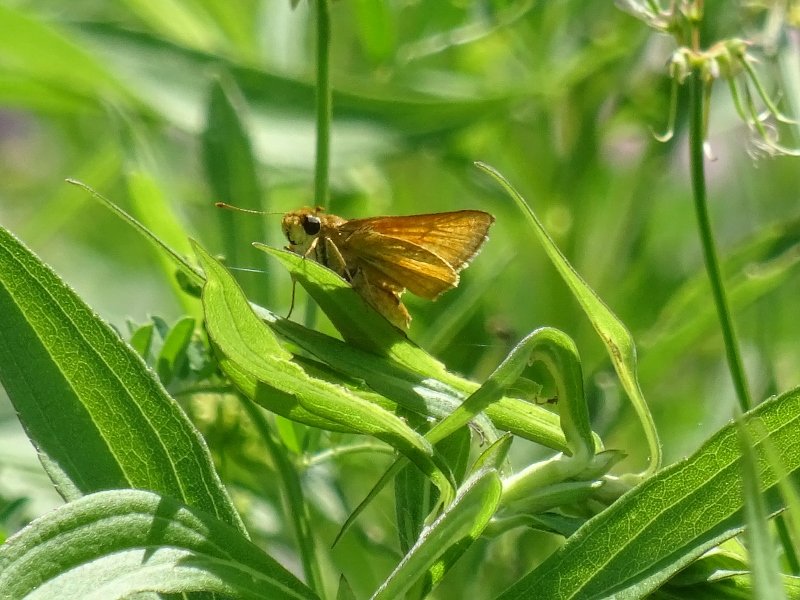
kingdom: Animalia
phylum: Arthropoda
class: Insecta
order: Lepidoptera
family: Hesperiidae
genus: Atrytone
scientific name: Atrytone delaware
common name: Delaware Skipper
